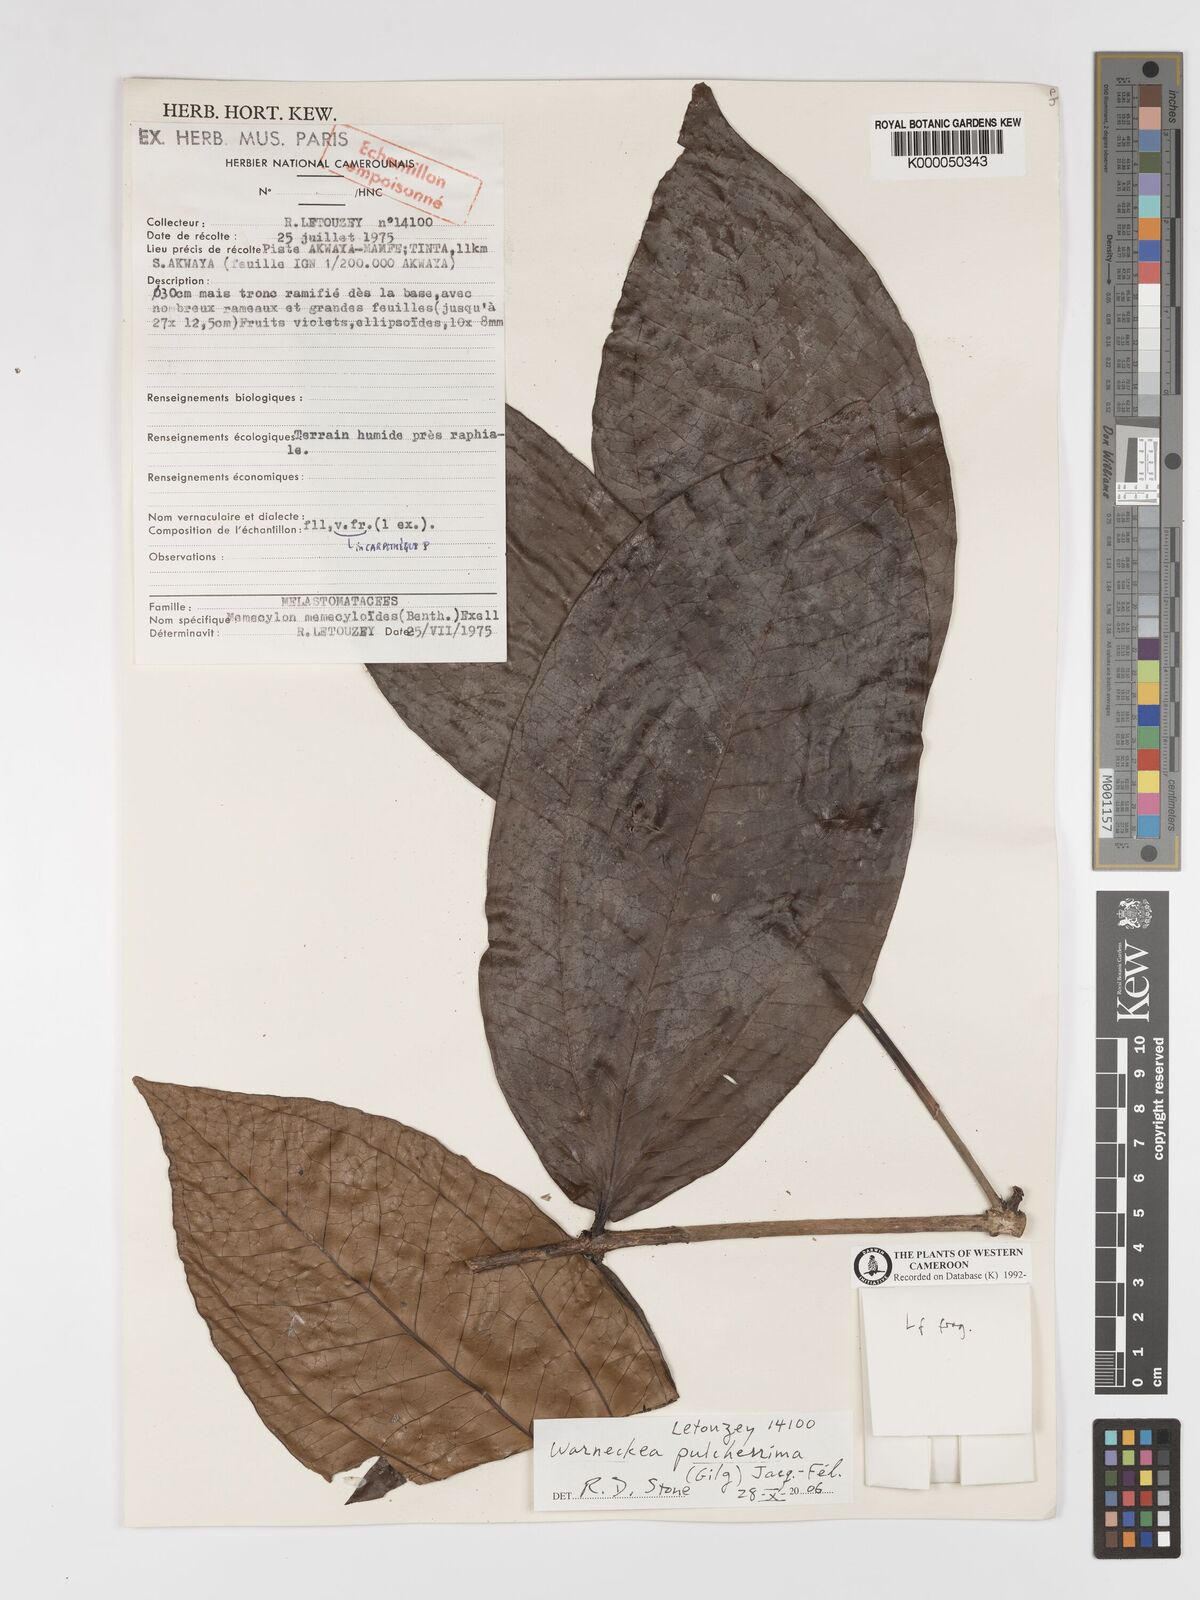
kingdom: Plantae
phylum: Tracheophyta
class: Magnoliopsida
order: Myrtales
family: Melastomataceae
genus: Warneckea
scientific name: Warneckea
